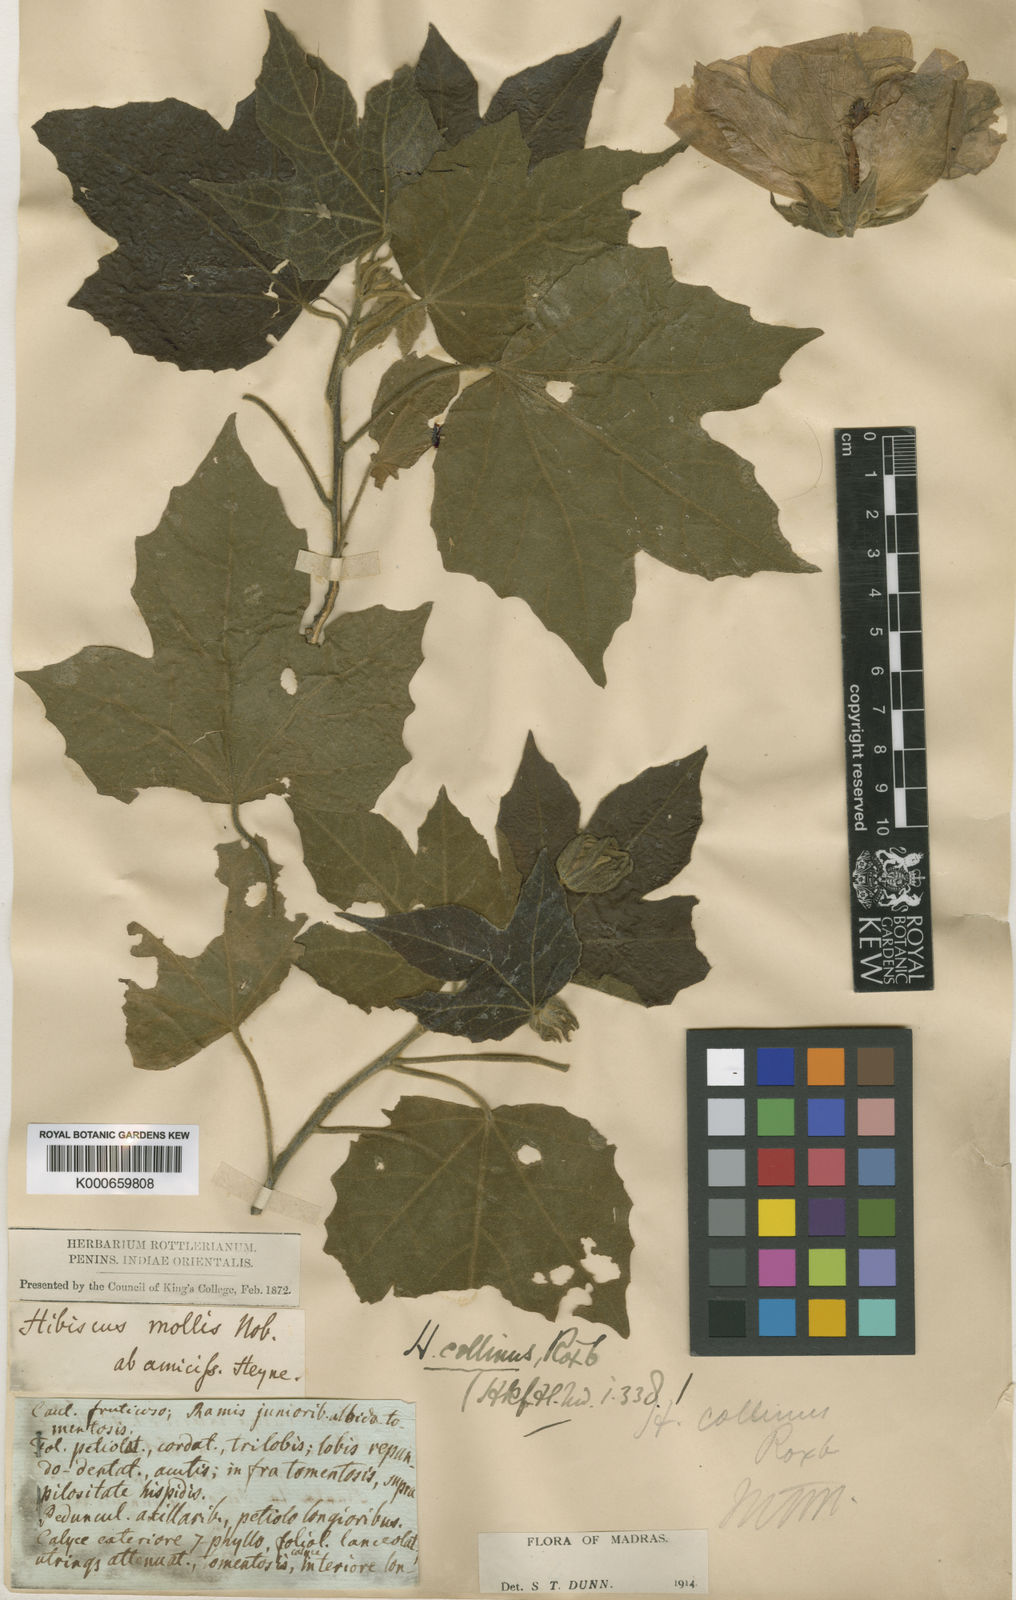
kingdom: Plantae
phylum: Tracheophyta
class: Magnoliopsida
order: Malvales
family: Malvaceae
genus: Hibiscus
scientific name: Hibiscus platanifolius
